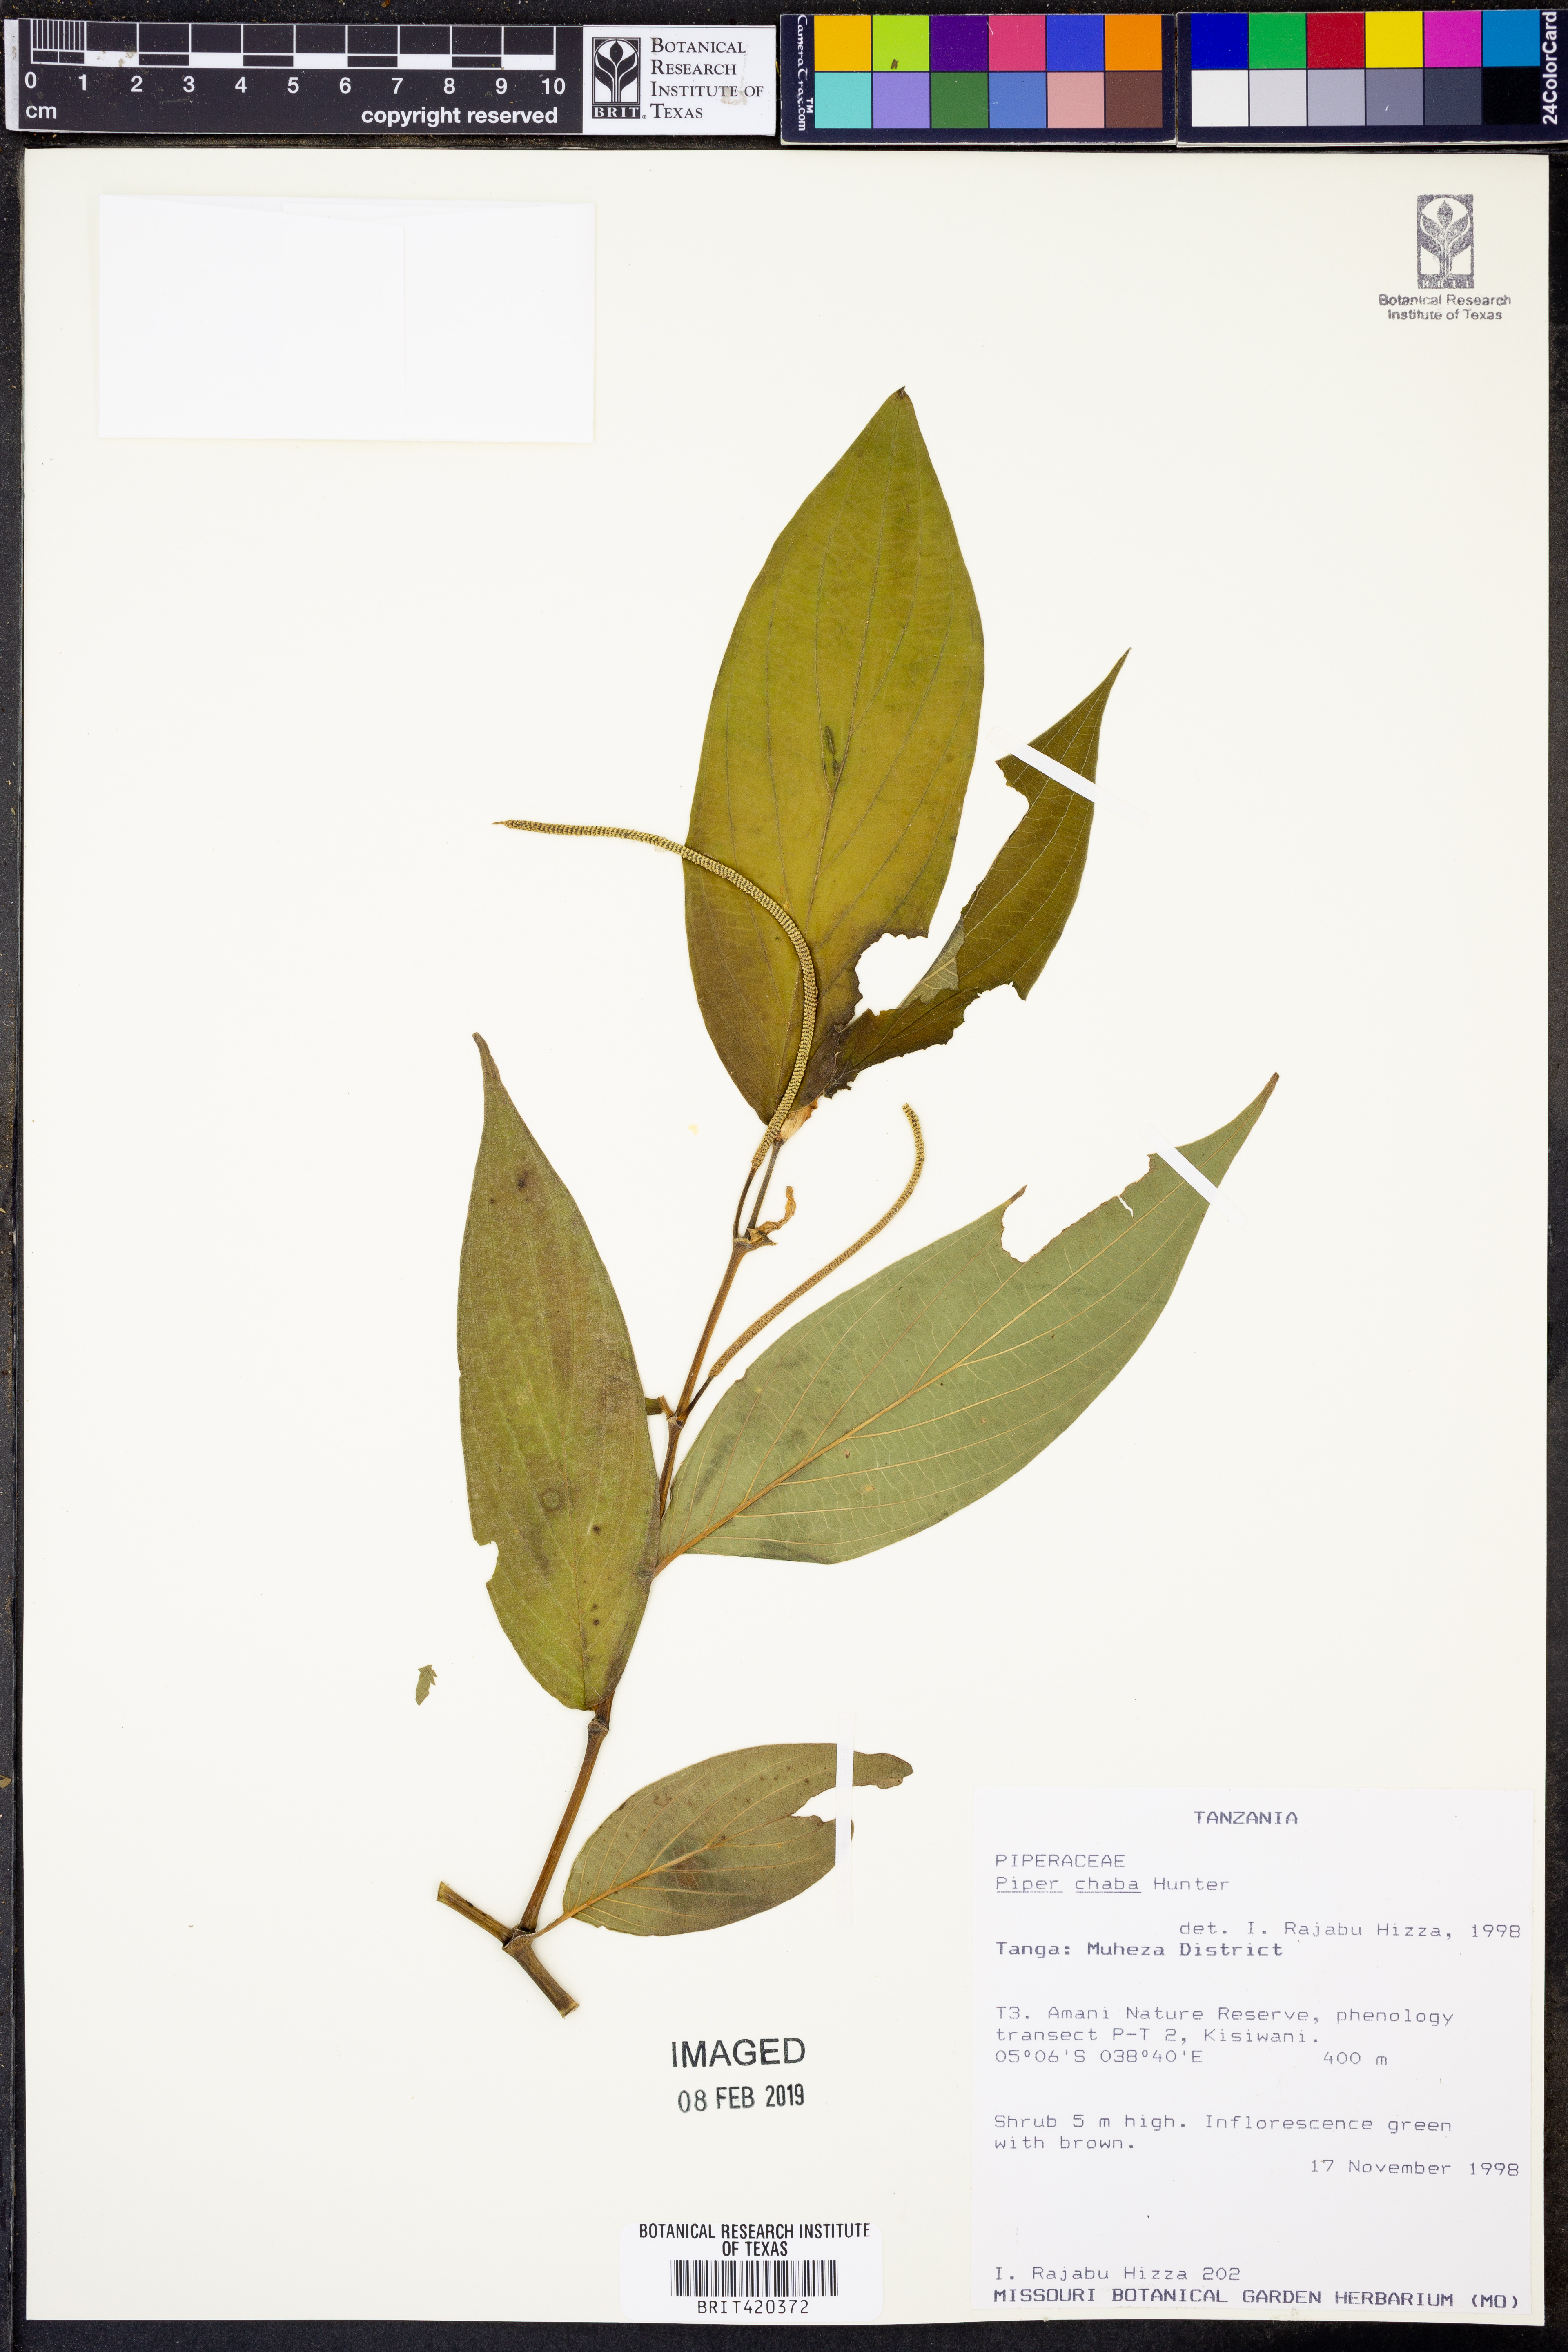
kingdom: Plantae
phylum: Tracheophyta
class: Magnoliopsida
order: Piperales
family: Piperaceae
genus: Piper
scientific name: Piper retrofractum
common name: Javanese long pepper
